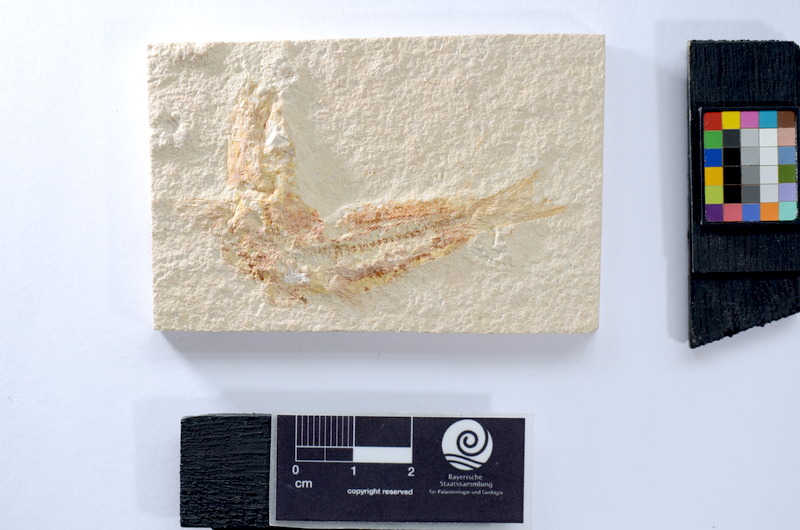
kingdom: Animalia
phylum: Chordata
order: Salmoniformes
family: Orthogonikleithridae
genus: Leptolepides
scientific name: Leptolepides sprattiformis
